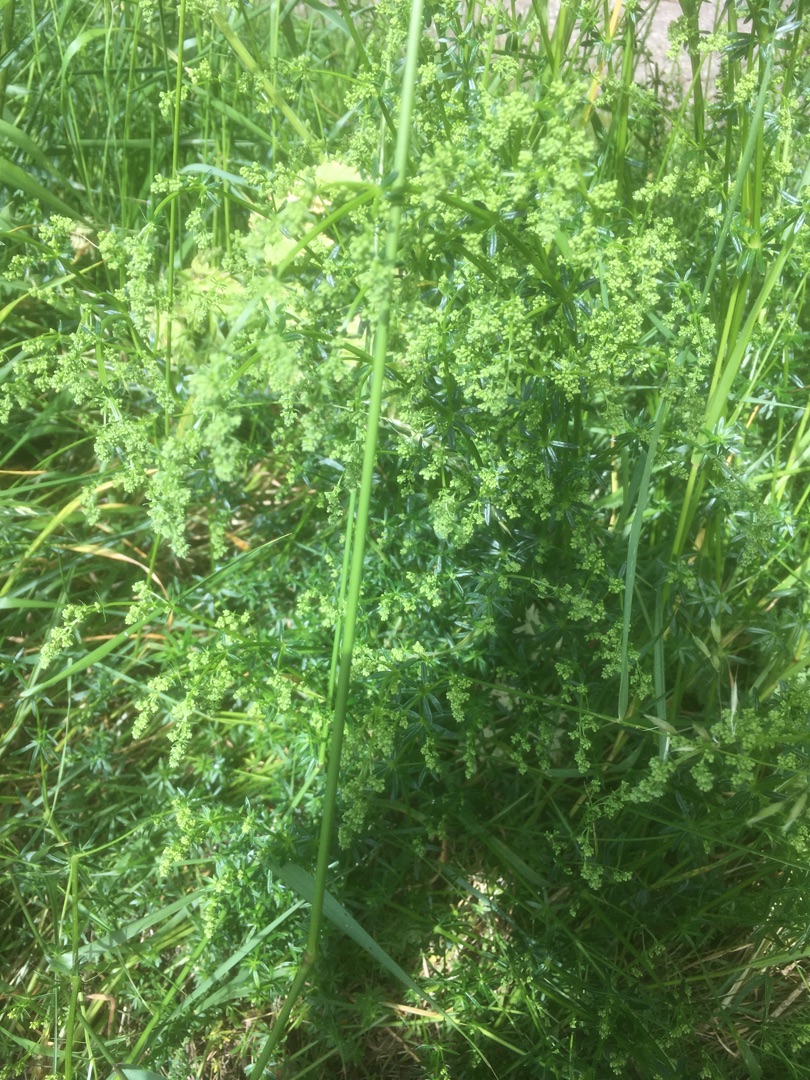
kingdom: Plantae
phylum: Tracheophyta
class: Magnoliopsida
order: Gentianales
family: Rubiaceae
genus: Galium
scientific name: Galium mollugo
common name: Hvid snerre
